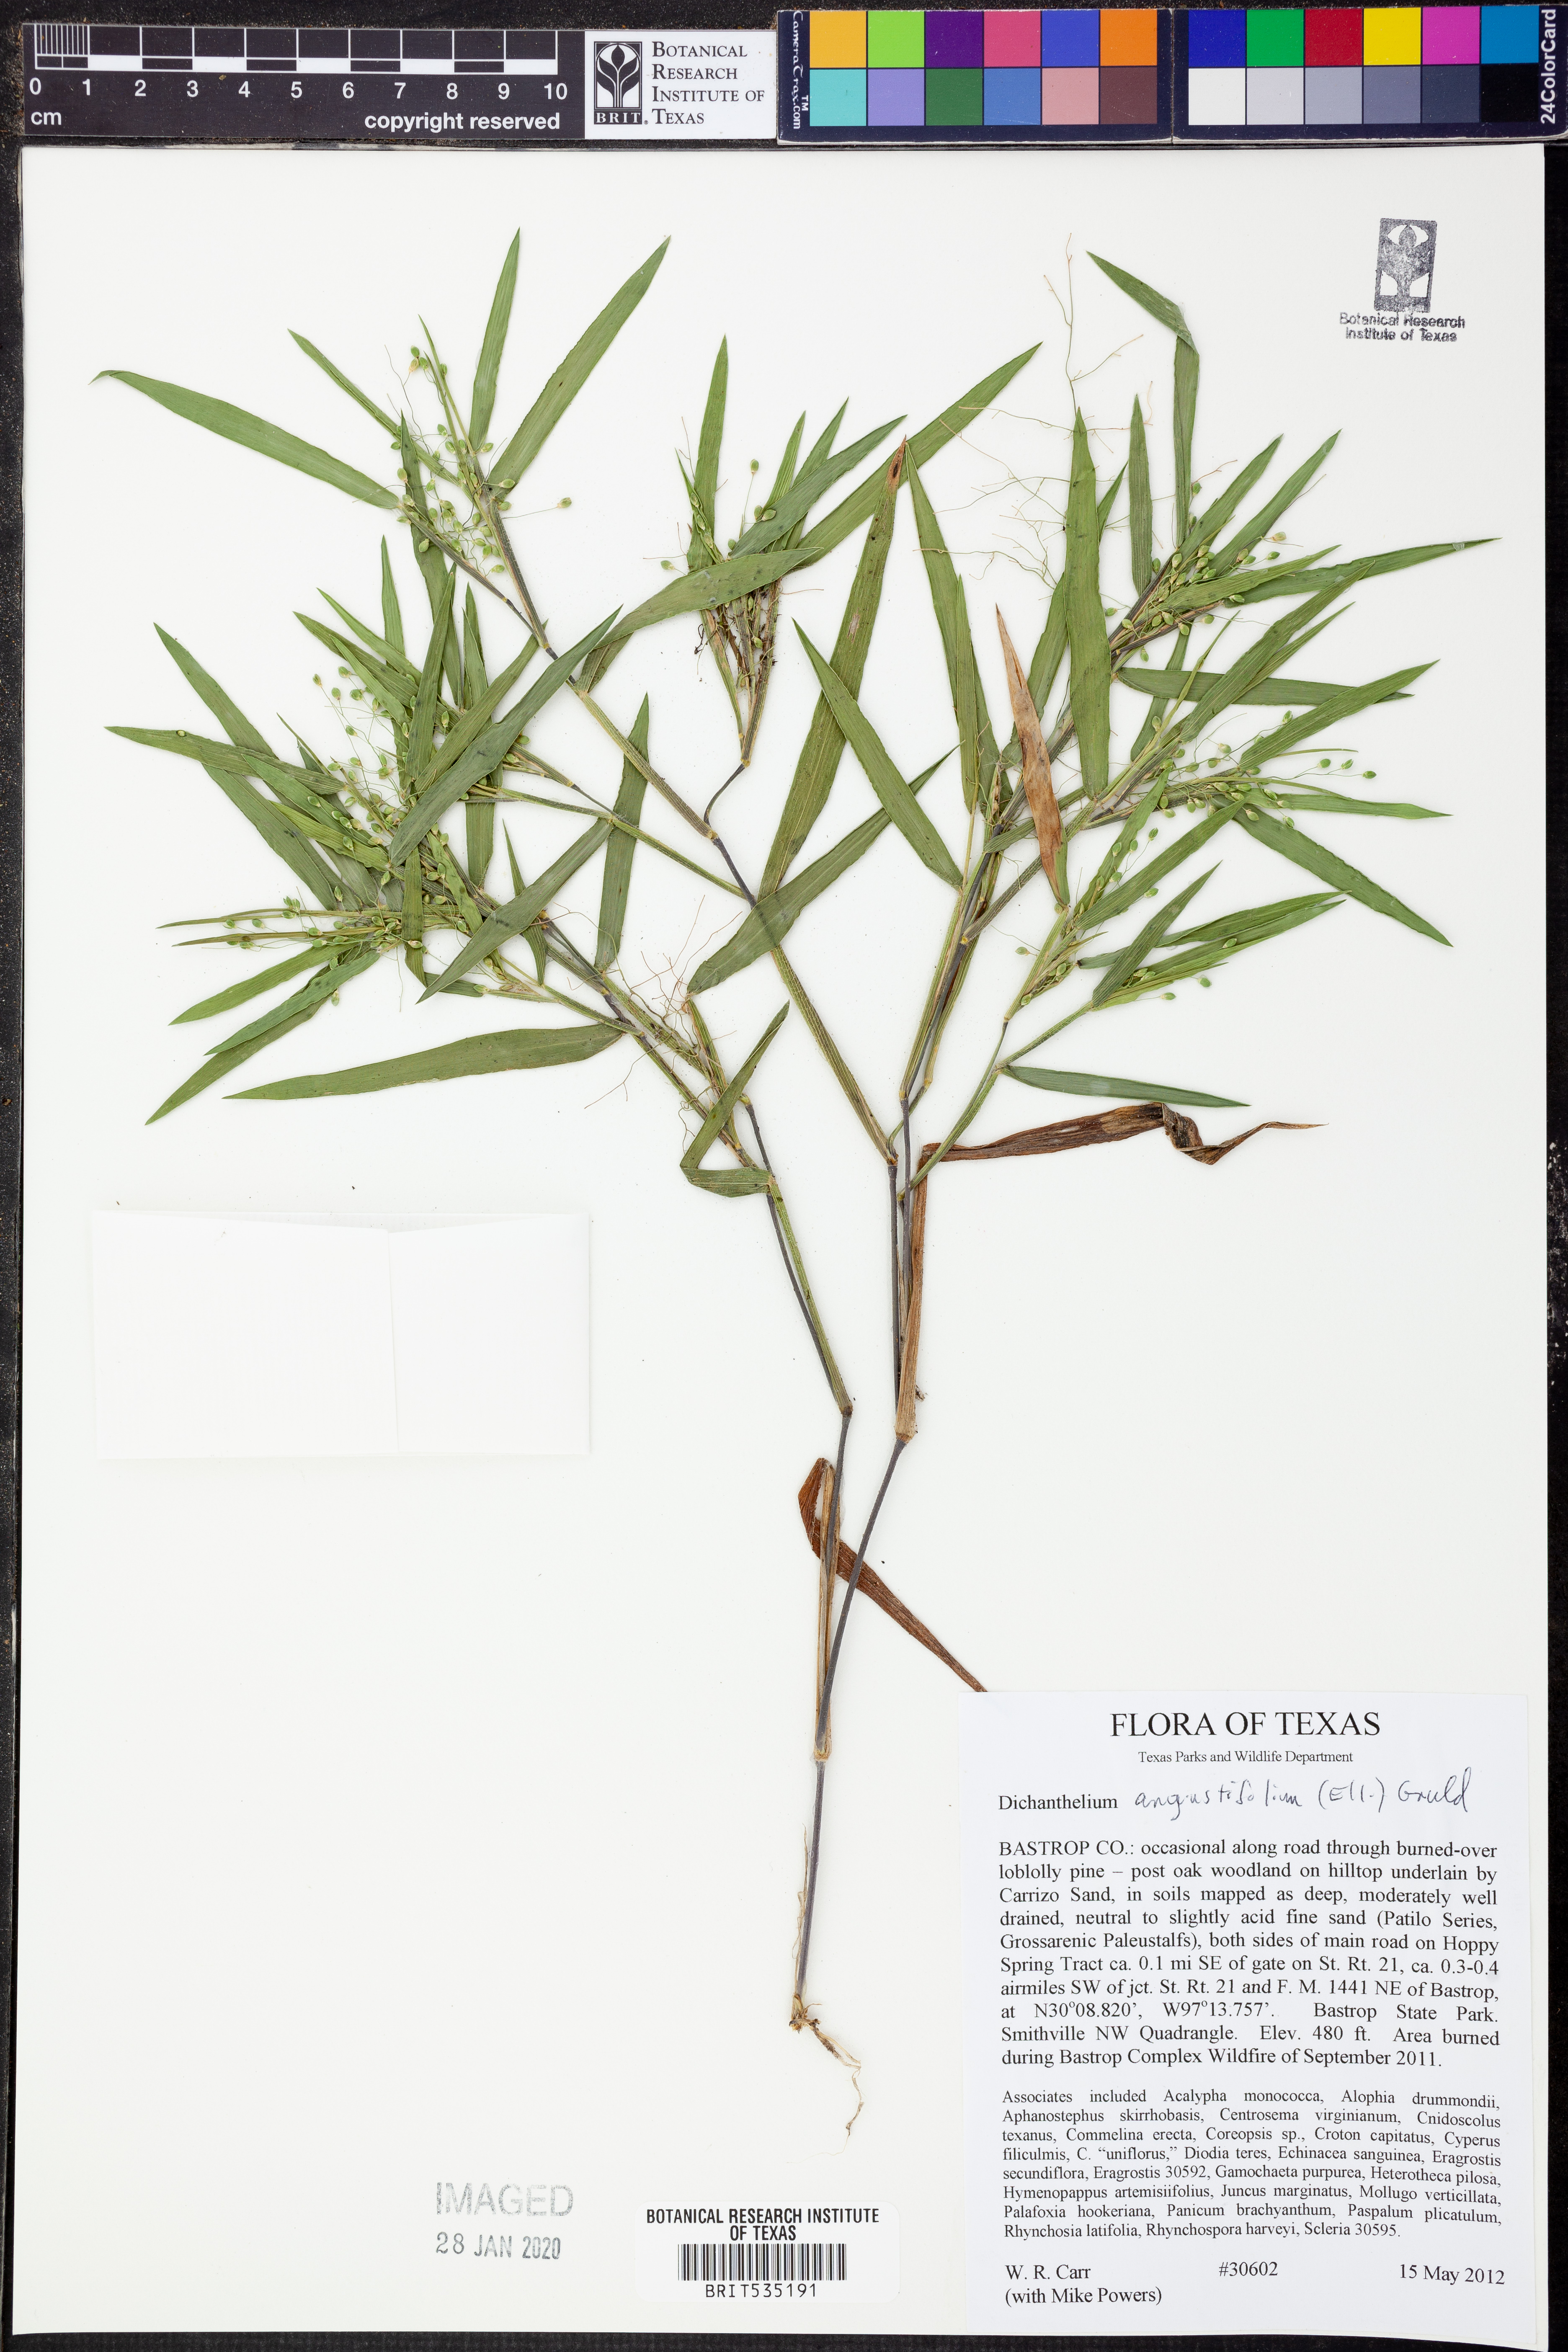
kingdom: Plantae
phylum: Tracheophyta
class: Liliopsida
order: Poales
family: Poaceae
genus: Dichanthelium
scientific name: Dichanthelium angustifolium
